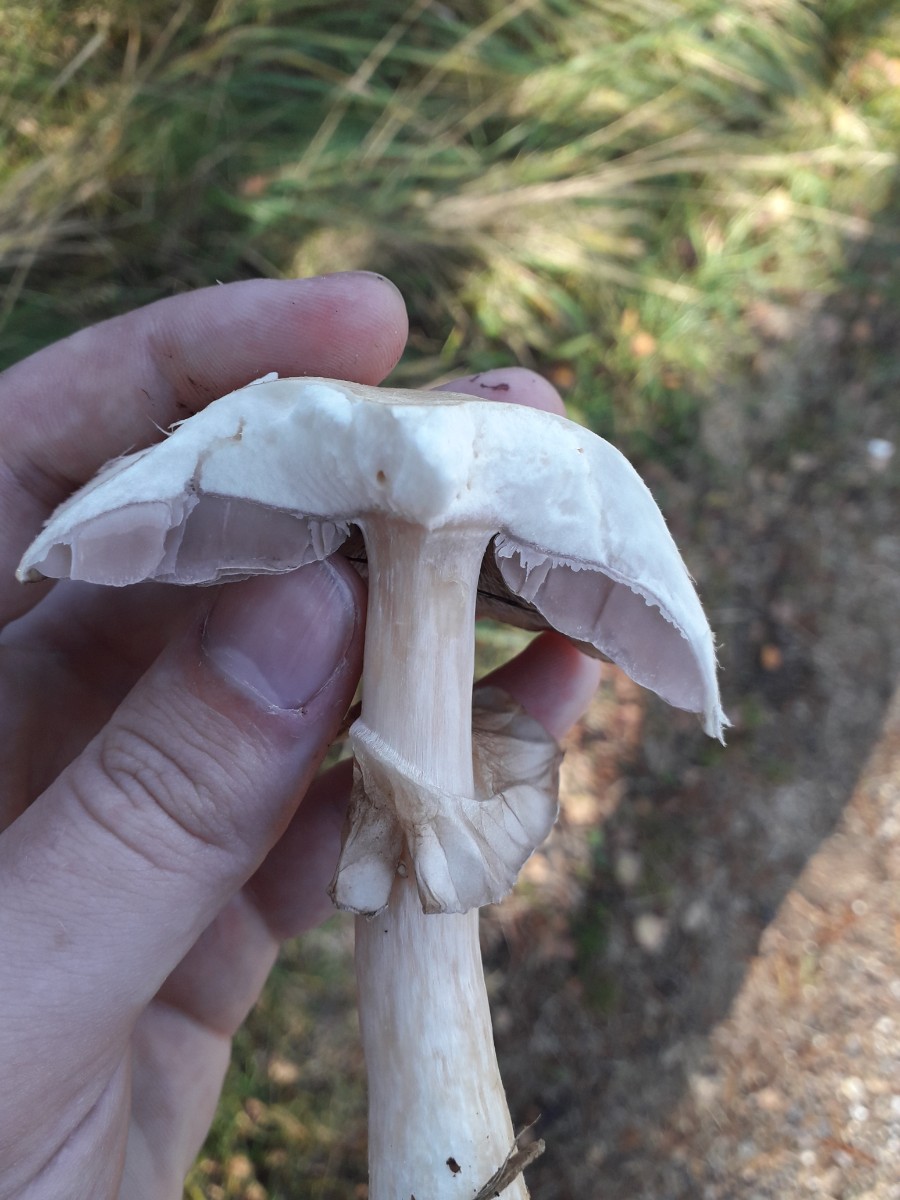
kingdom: Fungi
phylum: Basidiomycota
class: Agaricomycetes
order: Agaricales
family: Agaricaceae
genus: Agaricus
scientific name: Agaricus
